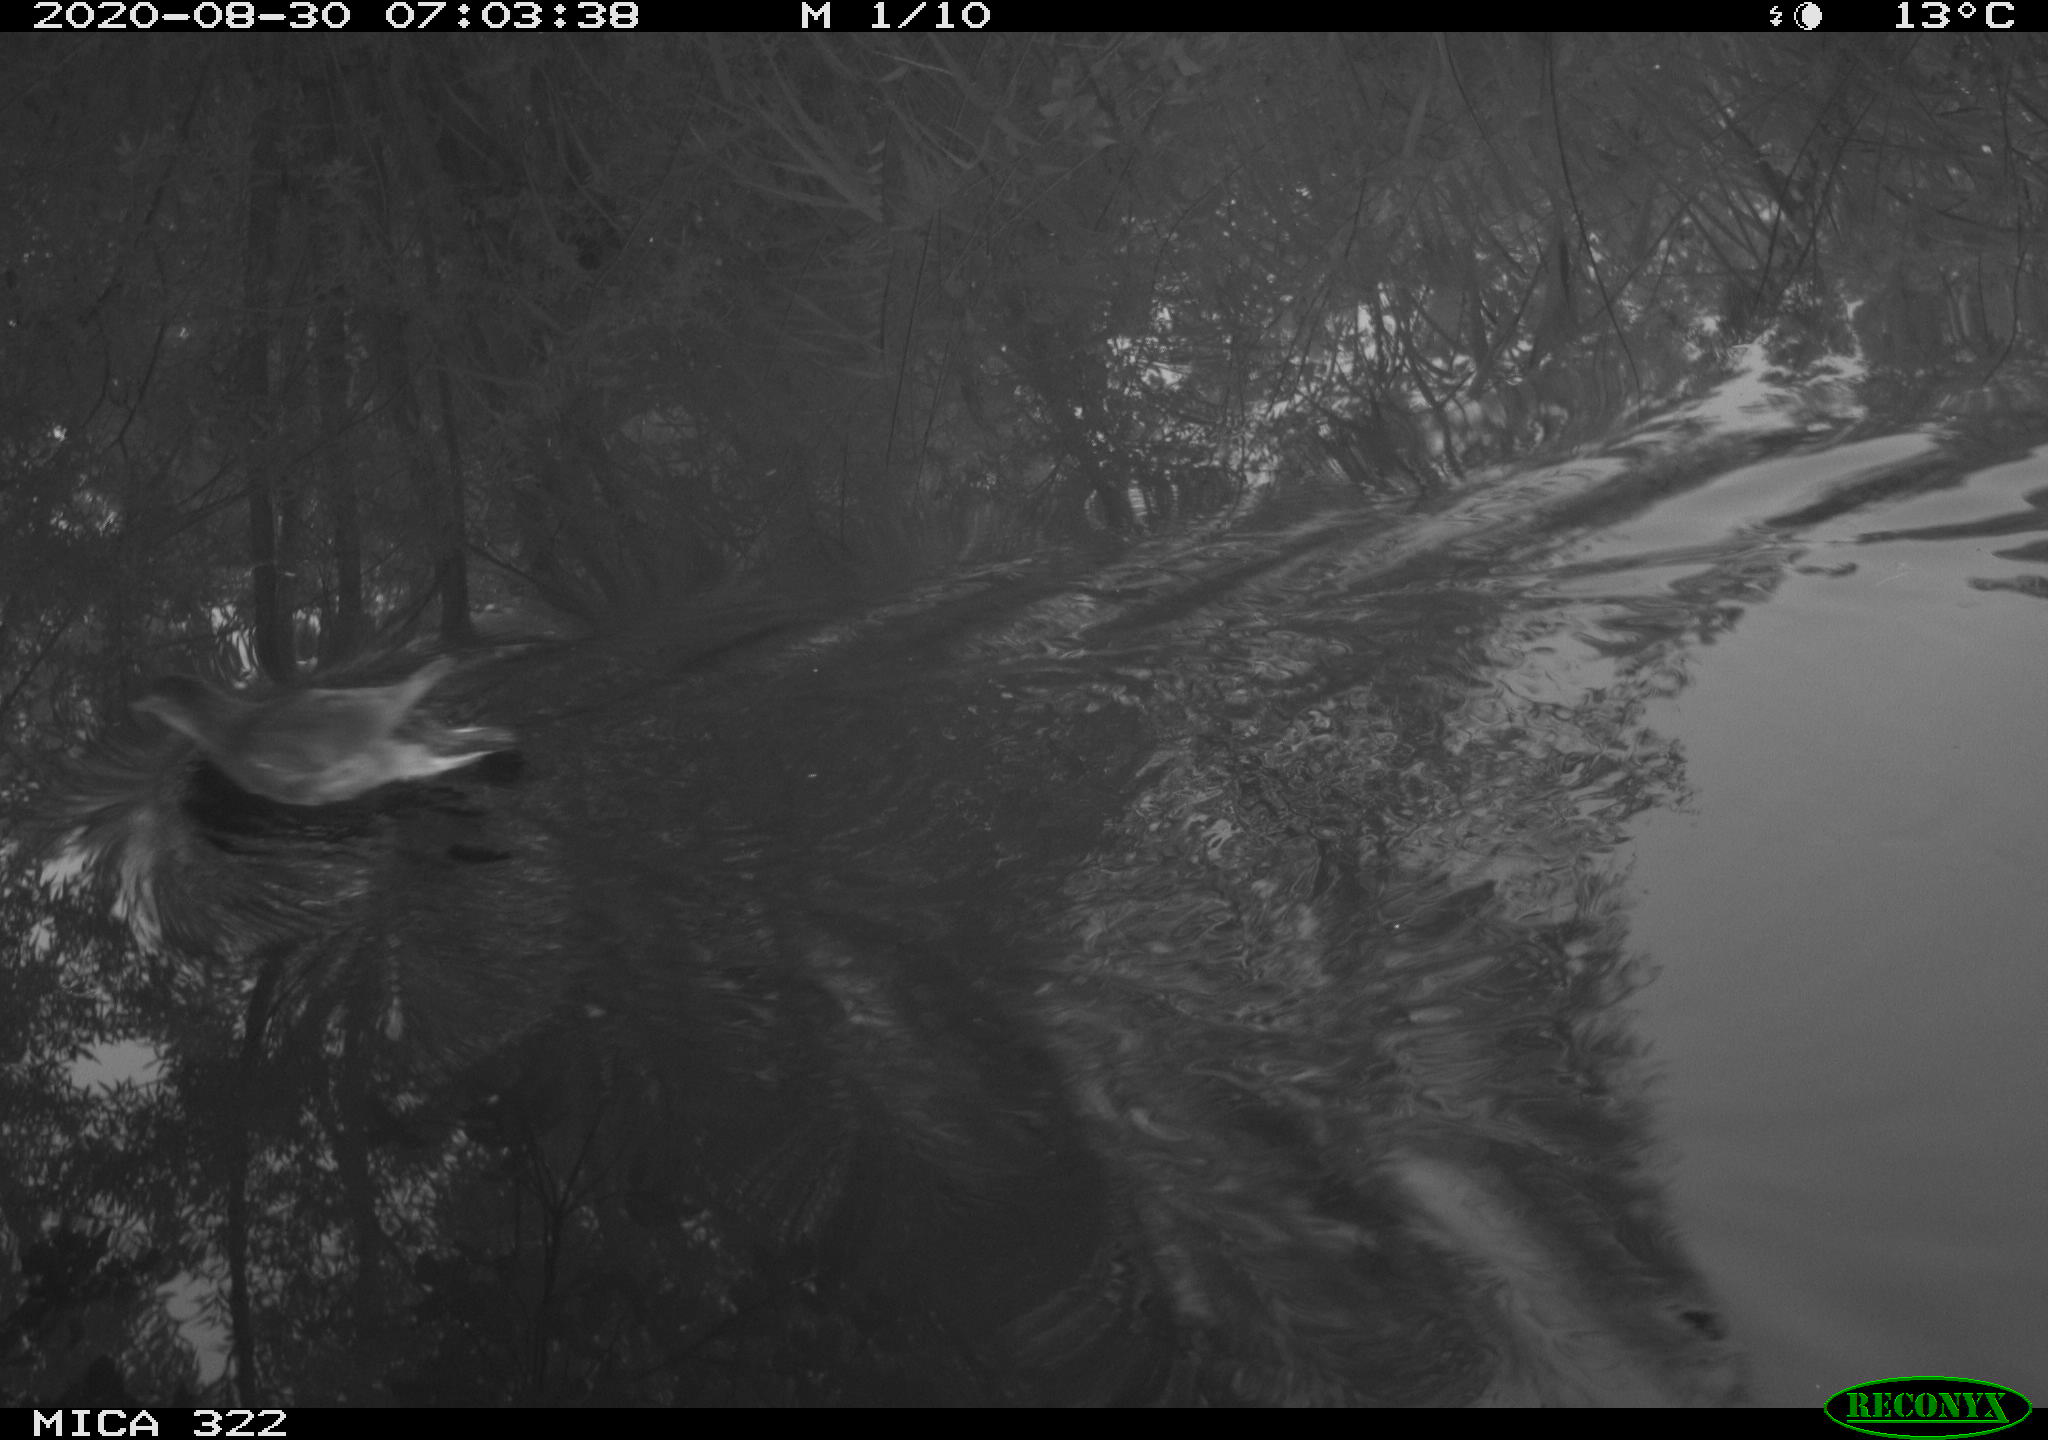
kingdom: Animalia
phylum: Chordata
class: Aves
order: Gruiformes
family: Rallidae
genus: Gallinula
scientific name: Gallinula chloropus
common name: Common moorhen
